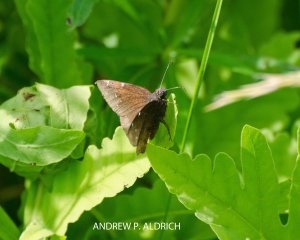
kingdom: Animalia
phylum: Arthropoda
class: Insecta
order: Lepidoptera
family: Hesperiidae
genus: Autochton
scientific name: Autochton
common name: Northern Cloudywing
